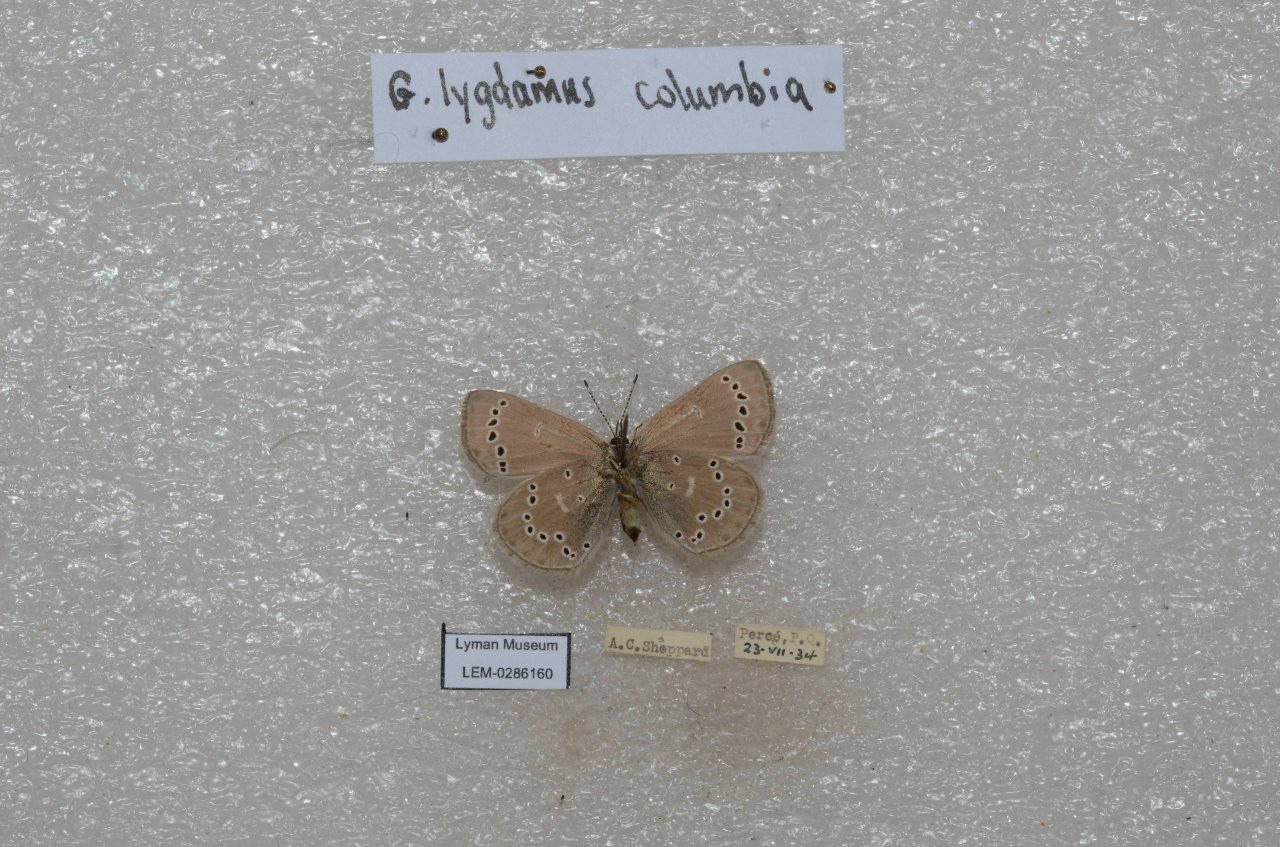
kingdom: Animalia
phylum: Arthropoda
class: Insecta
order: Lepidoptera
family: Lycaenidae
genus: Glaucopsyche
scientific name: Glaucopsyche lygdamus
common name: Silvery Blue
